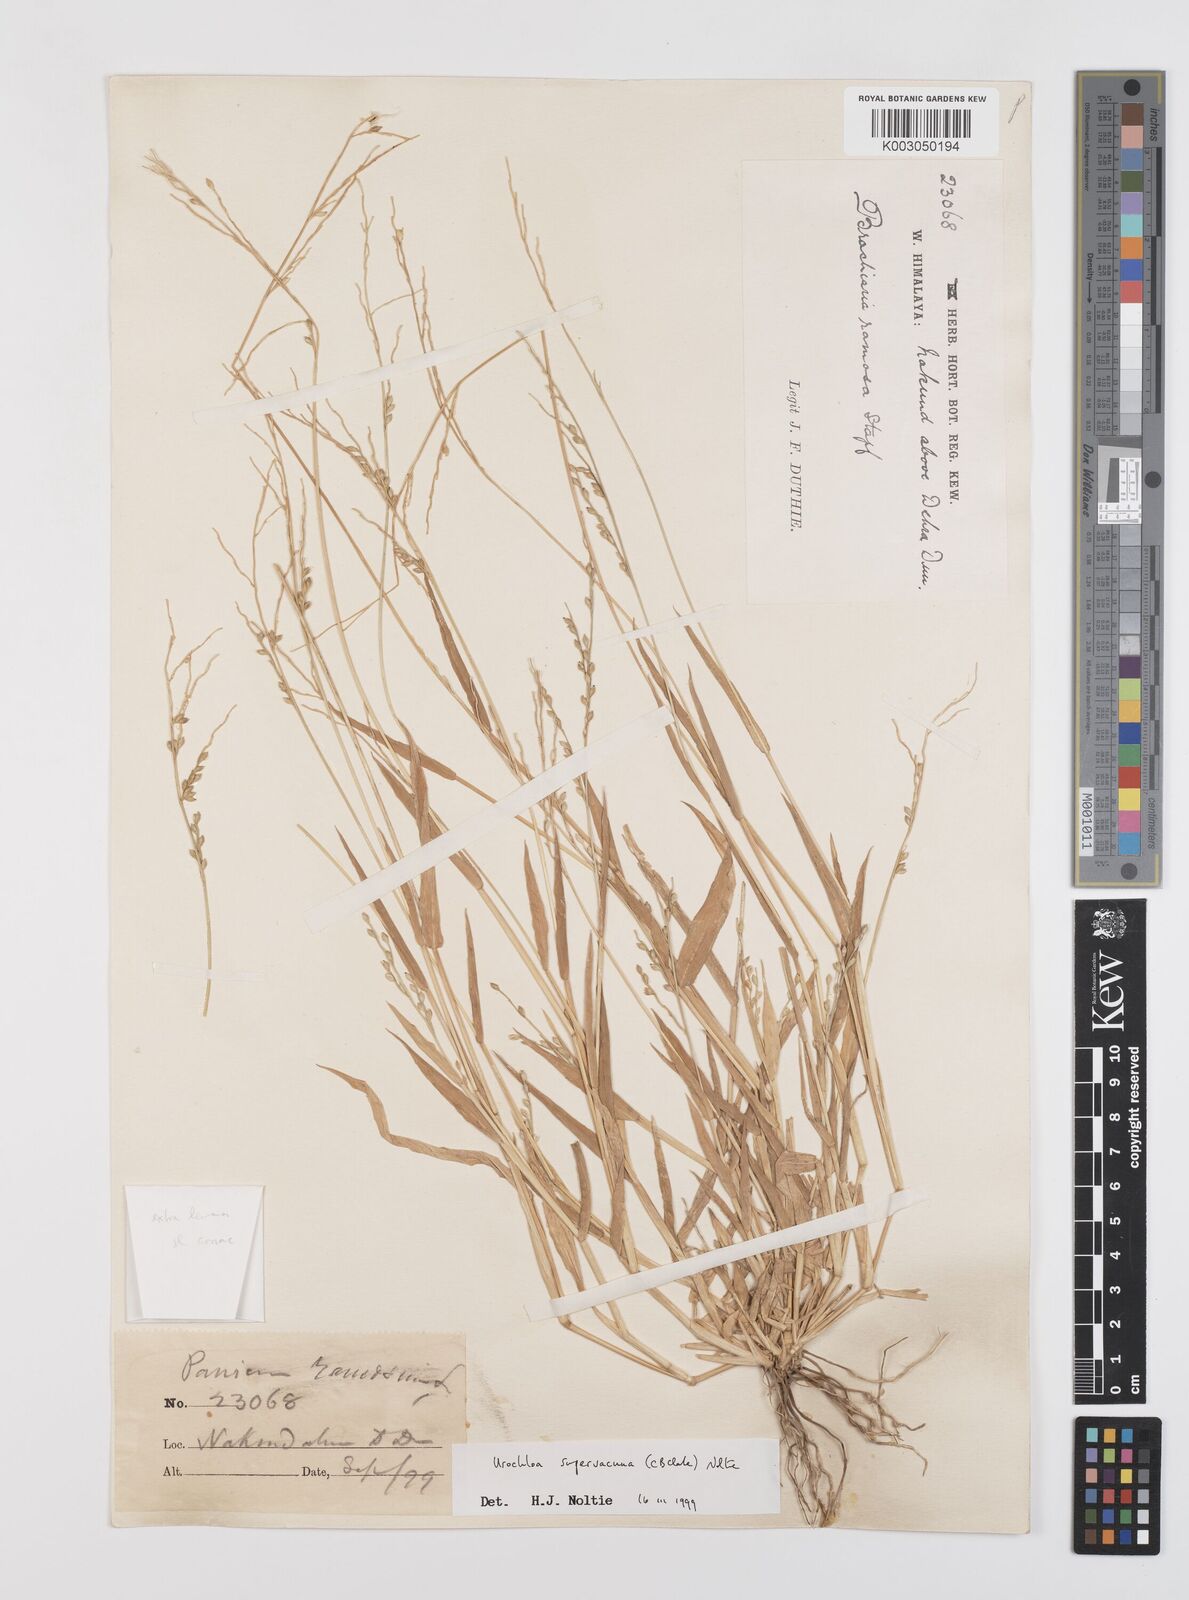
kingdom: Plantae
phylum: Tracheophyta
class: Liliopsida
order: Poales
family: Poaceae
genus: Urochloa
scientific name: Urochloa ramosa
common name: Browntop millet
